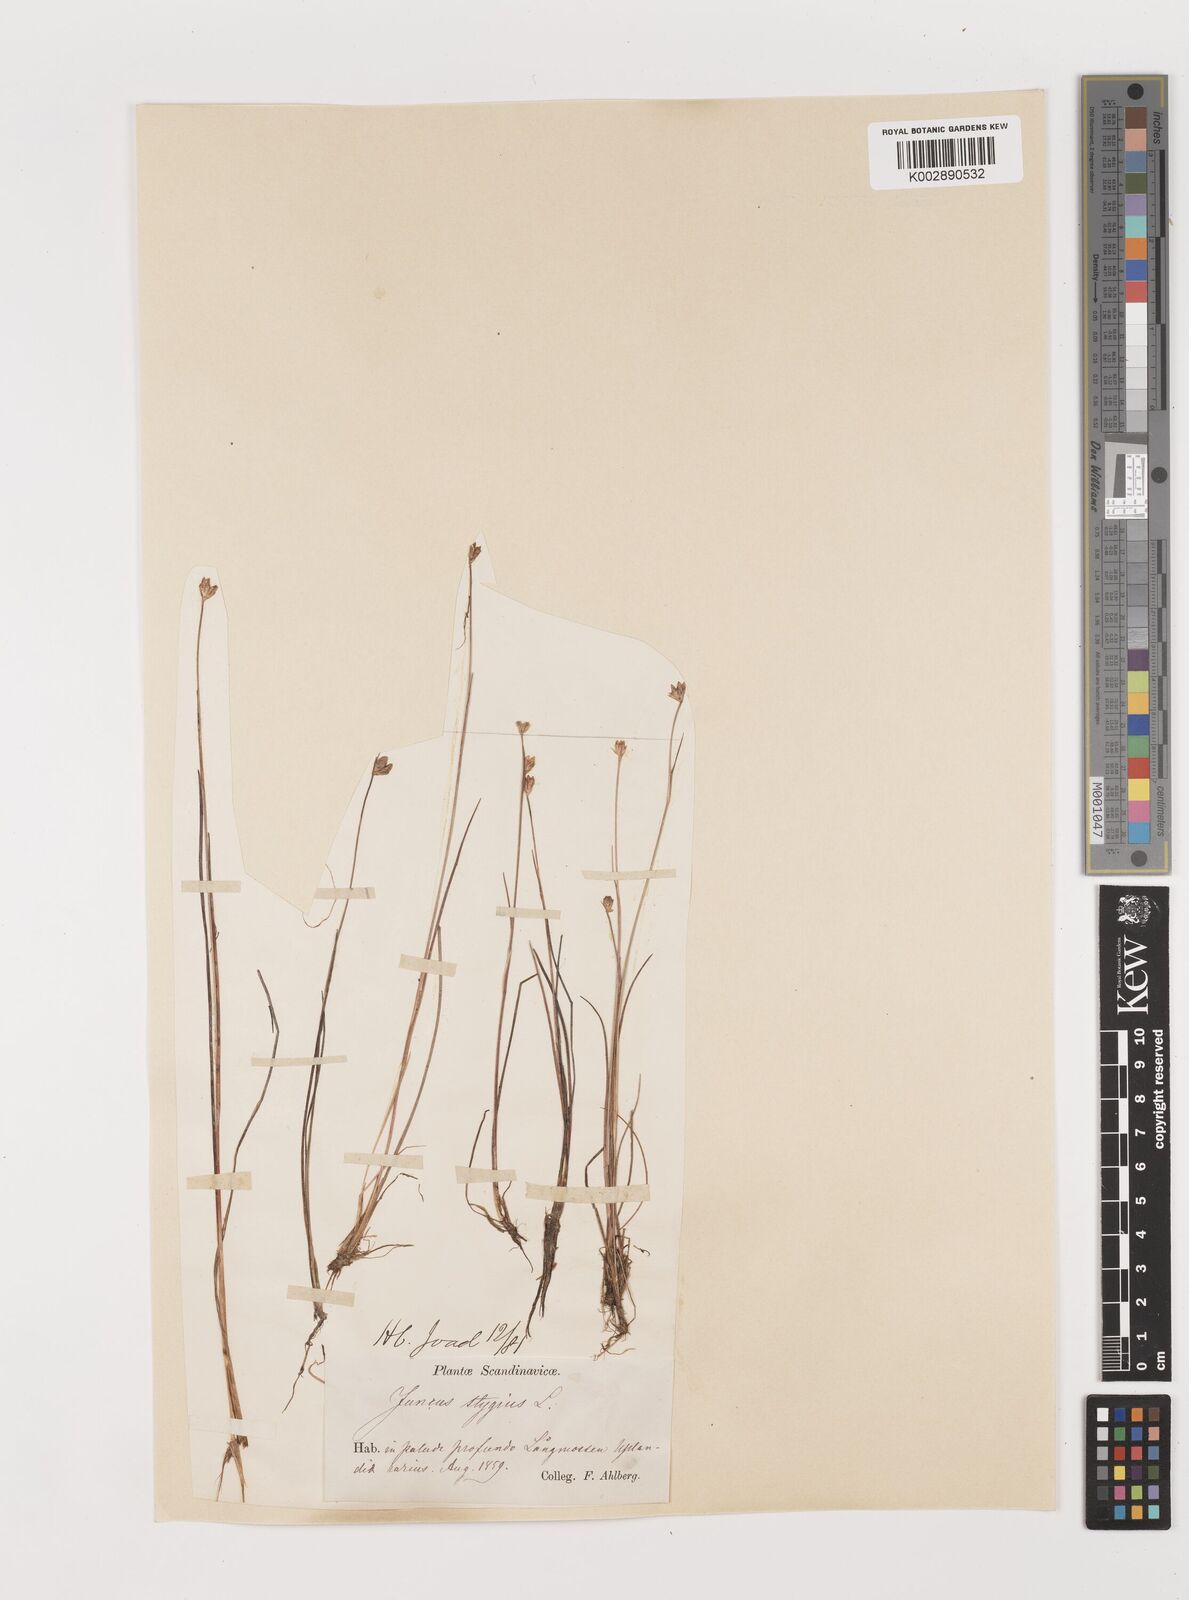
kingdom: Plantae
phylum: Tracheophyta
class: Liliopsida
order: Poales
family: Juncaceae
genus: Juncus
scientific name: Juncus stygius
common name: Bog rush
